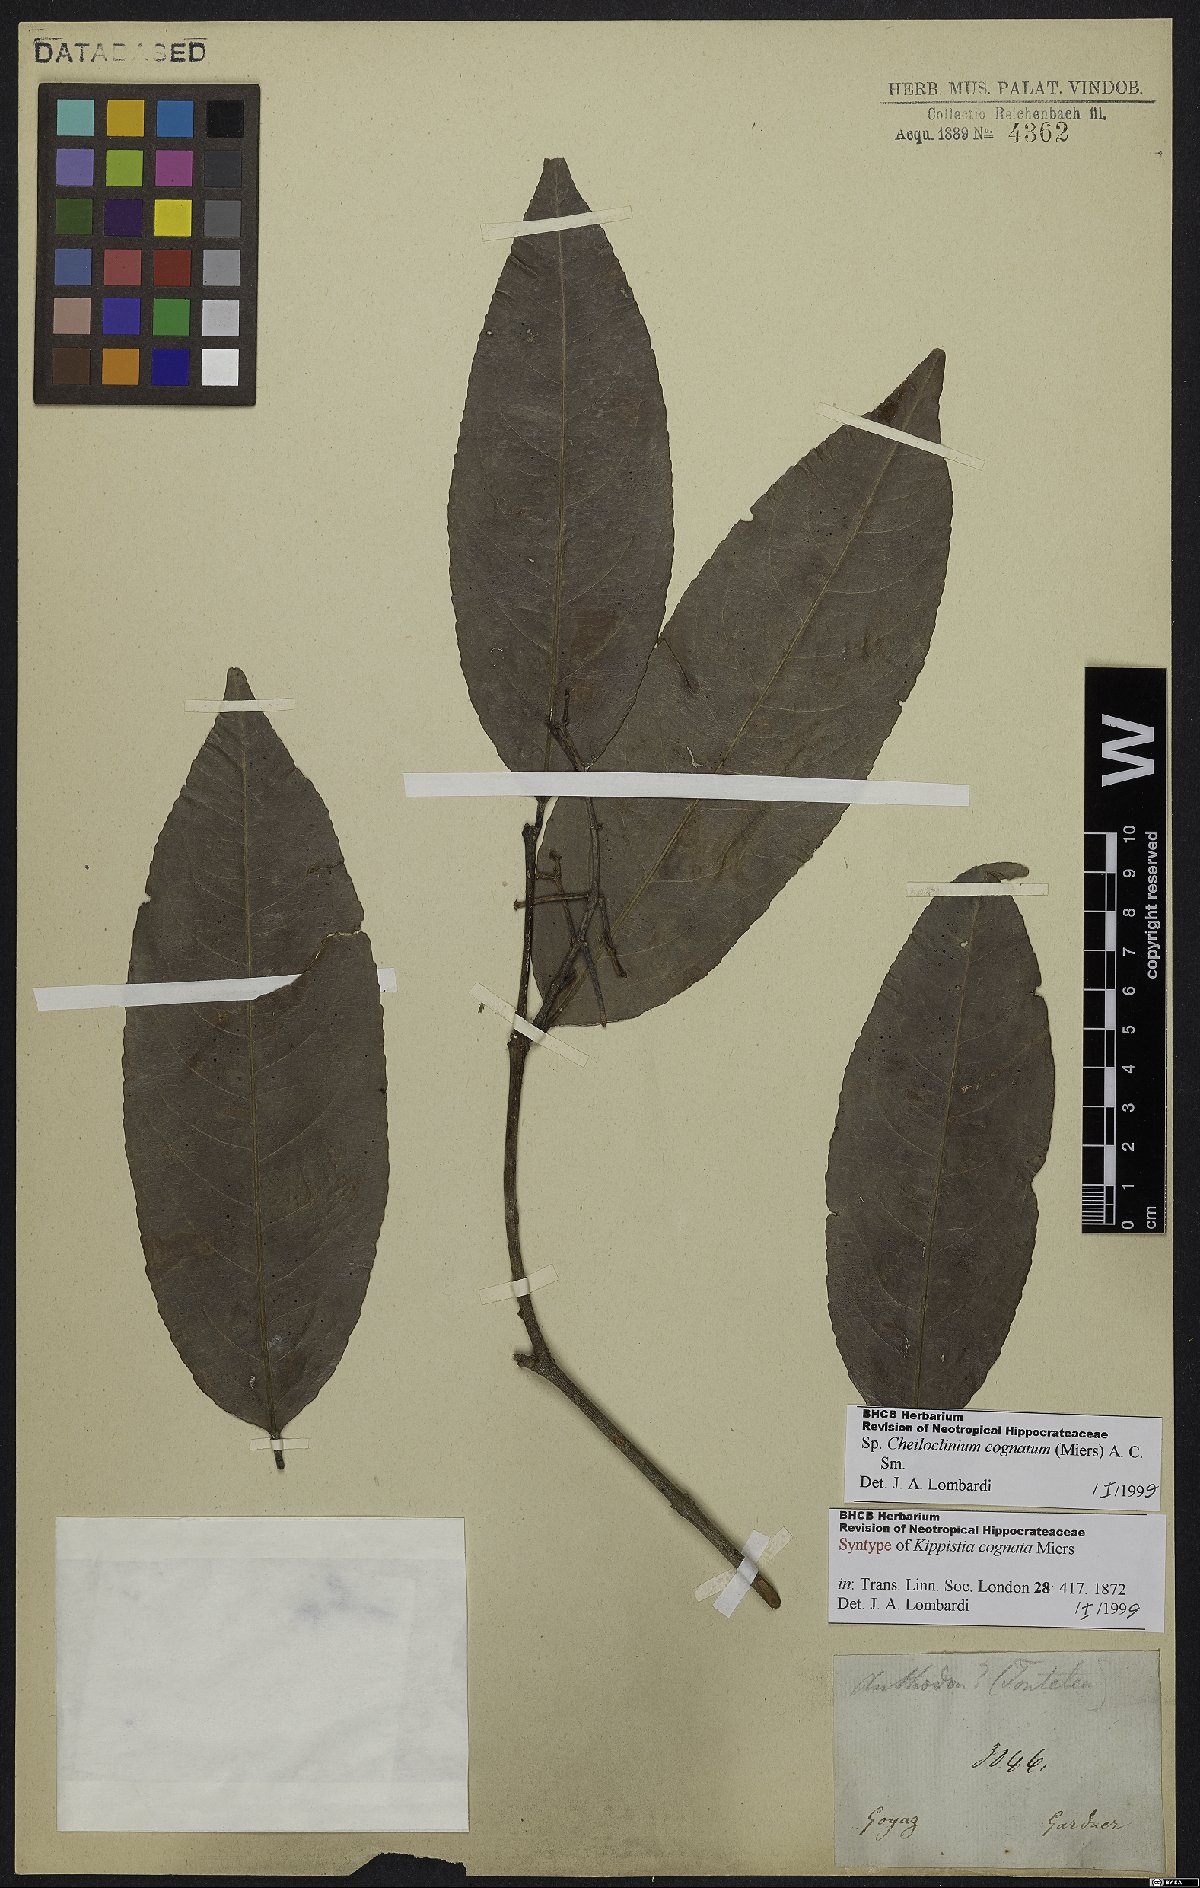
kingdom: Plantae
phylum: Tracheophyta
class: Magnoliopsida
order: Celastrales
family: Celastraceae
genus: Cheiloclinium
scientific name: Cheiloclinium cognatum
